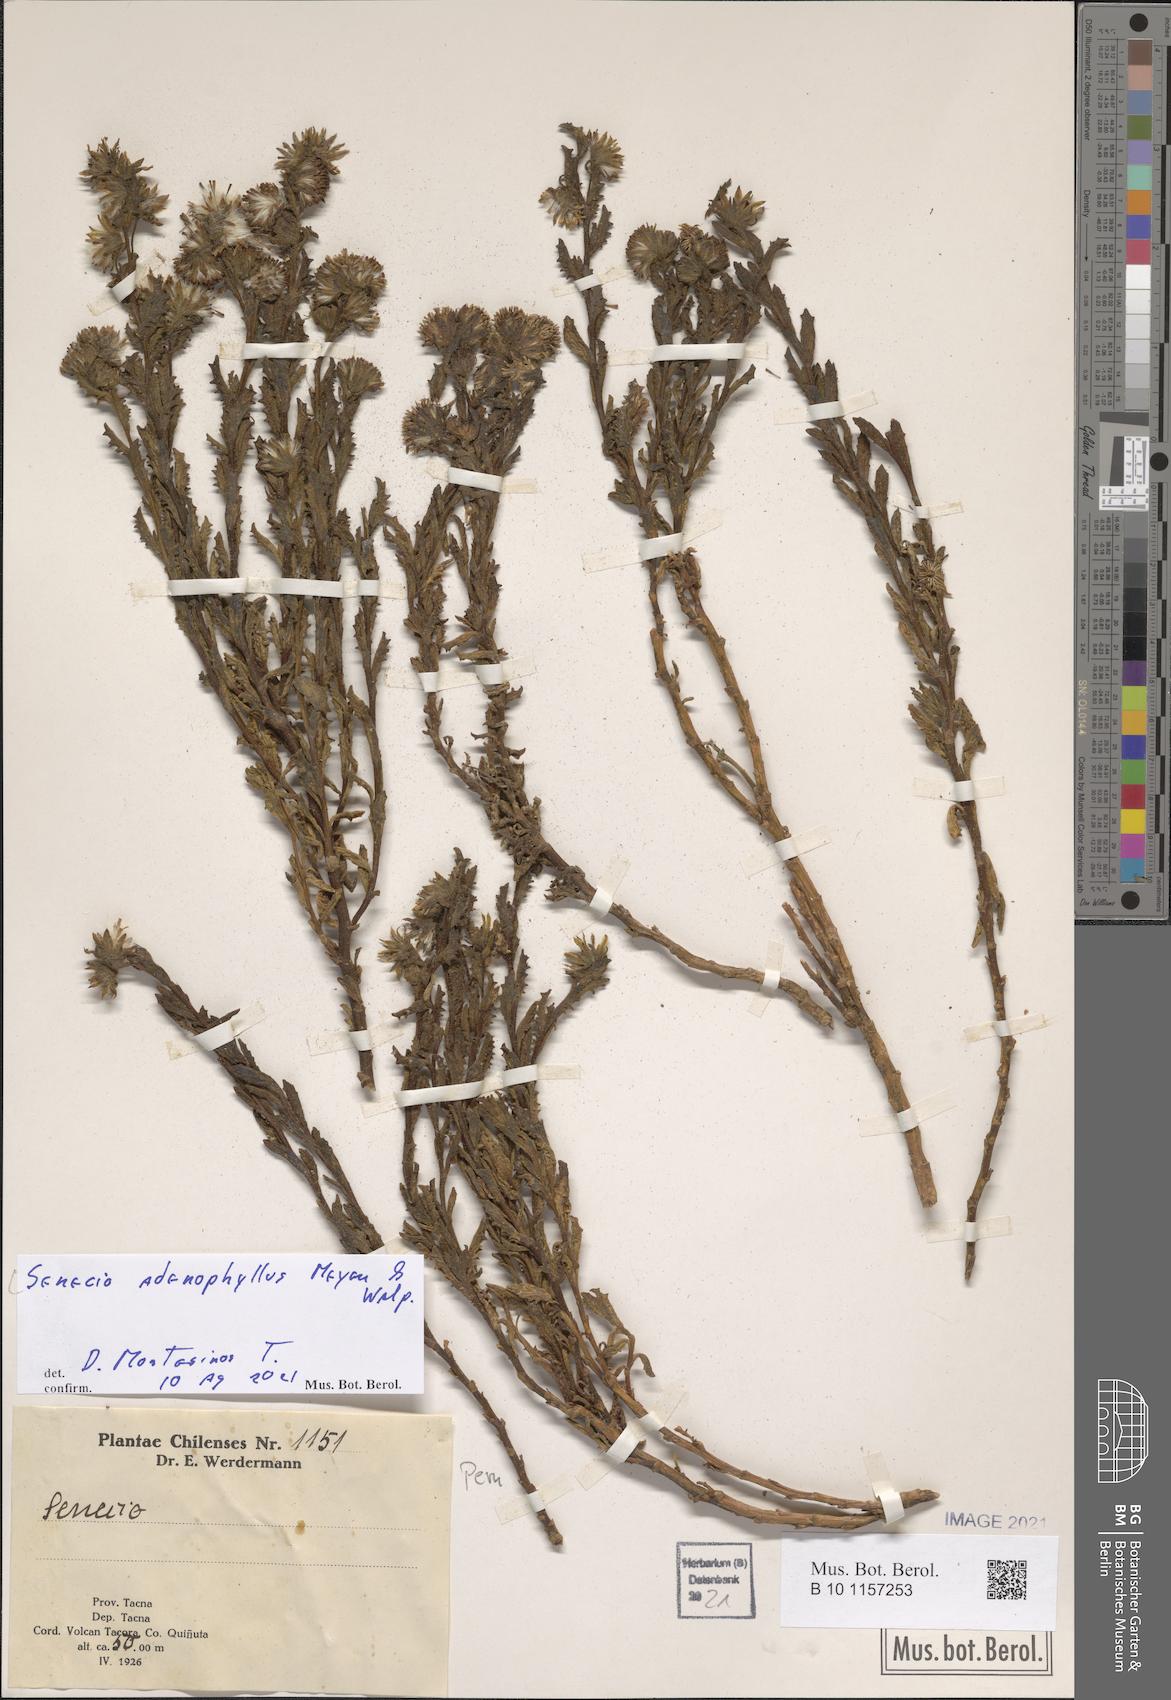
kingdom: Plantae
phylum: Tracheophyta
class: Magnoliopsida
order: Asterales
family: Asteraceae
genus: Senecio
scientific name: Senecio adenophyllus
